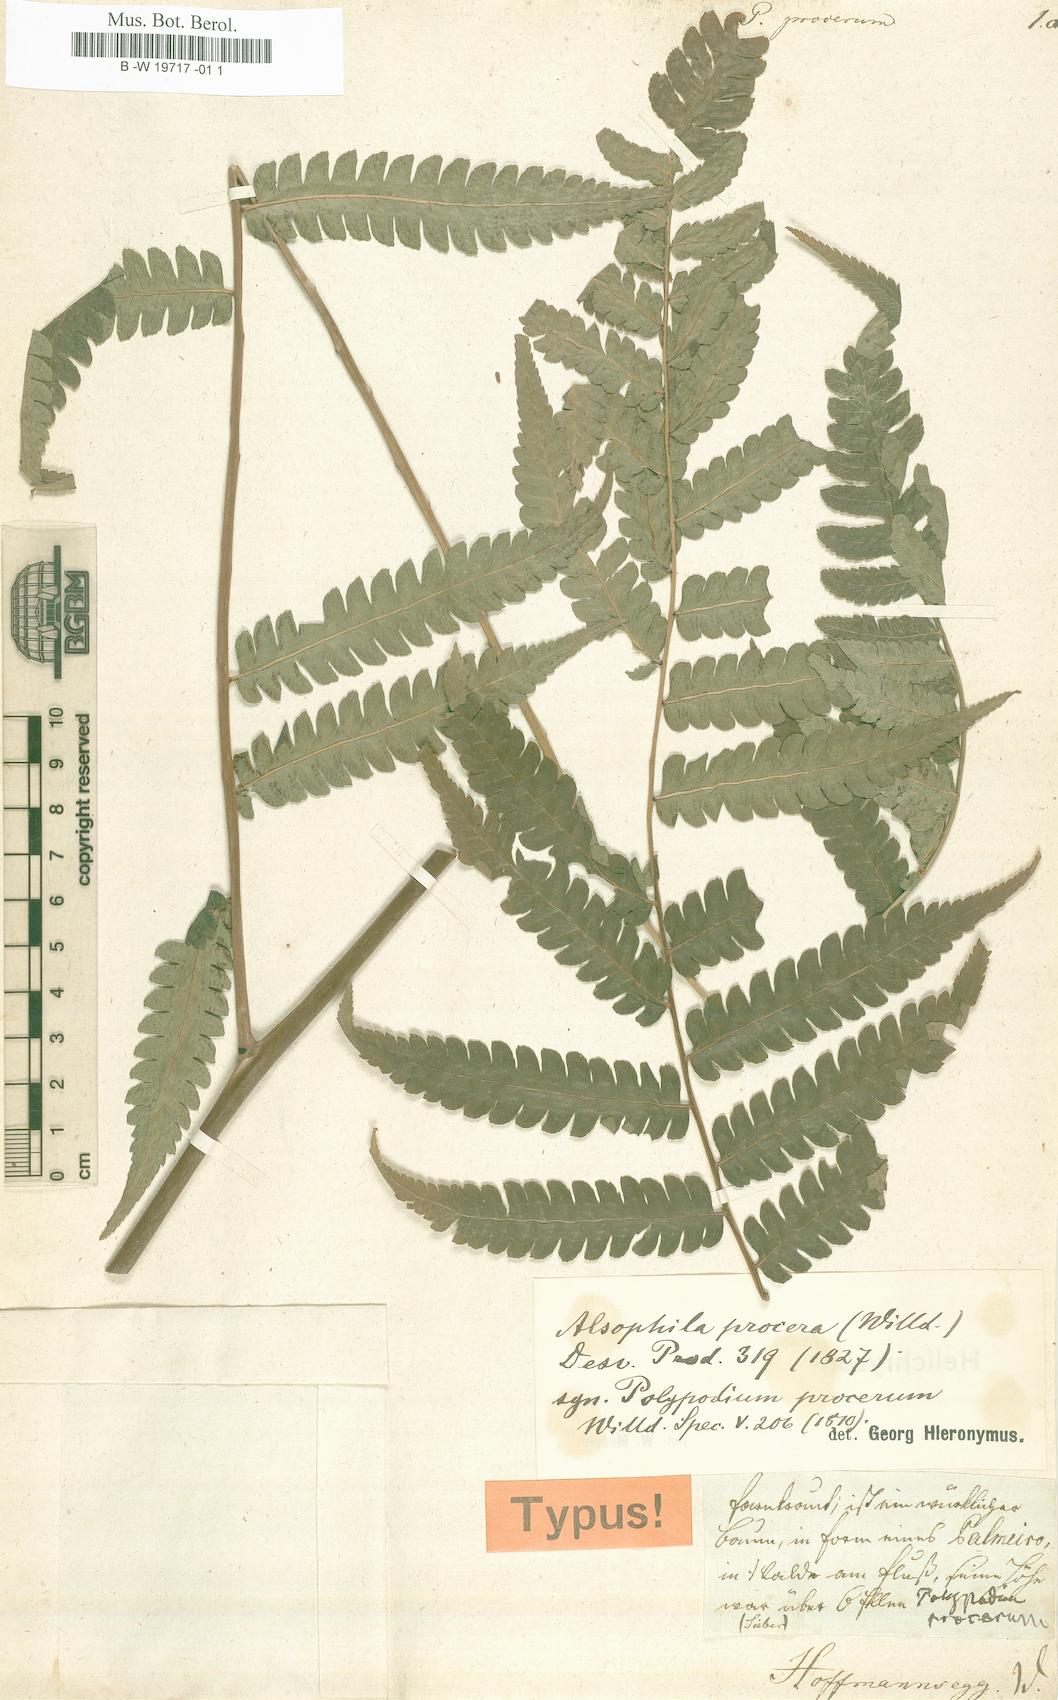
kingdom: Plantae
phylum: Tracheophyta
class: Polypodiopsida
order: Polypodiales
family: Polypodiaceae
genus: Selliguea
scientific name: Selliguea moulmeinensis
